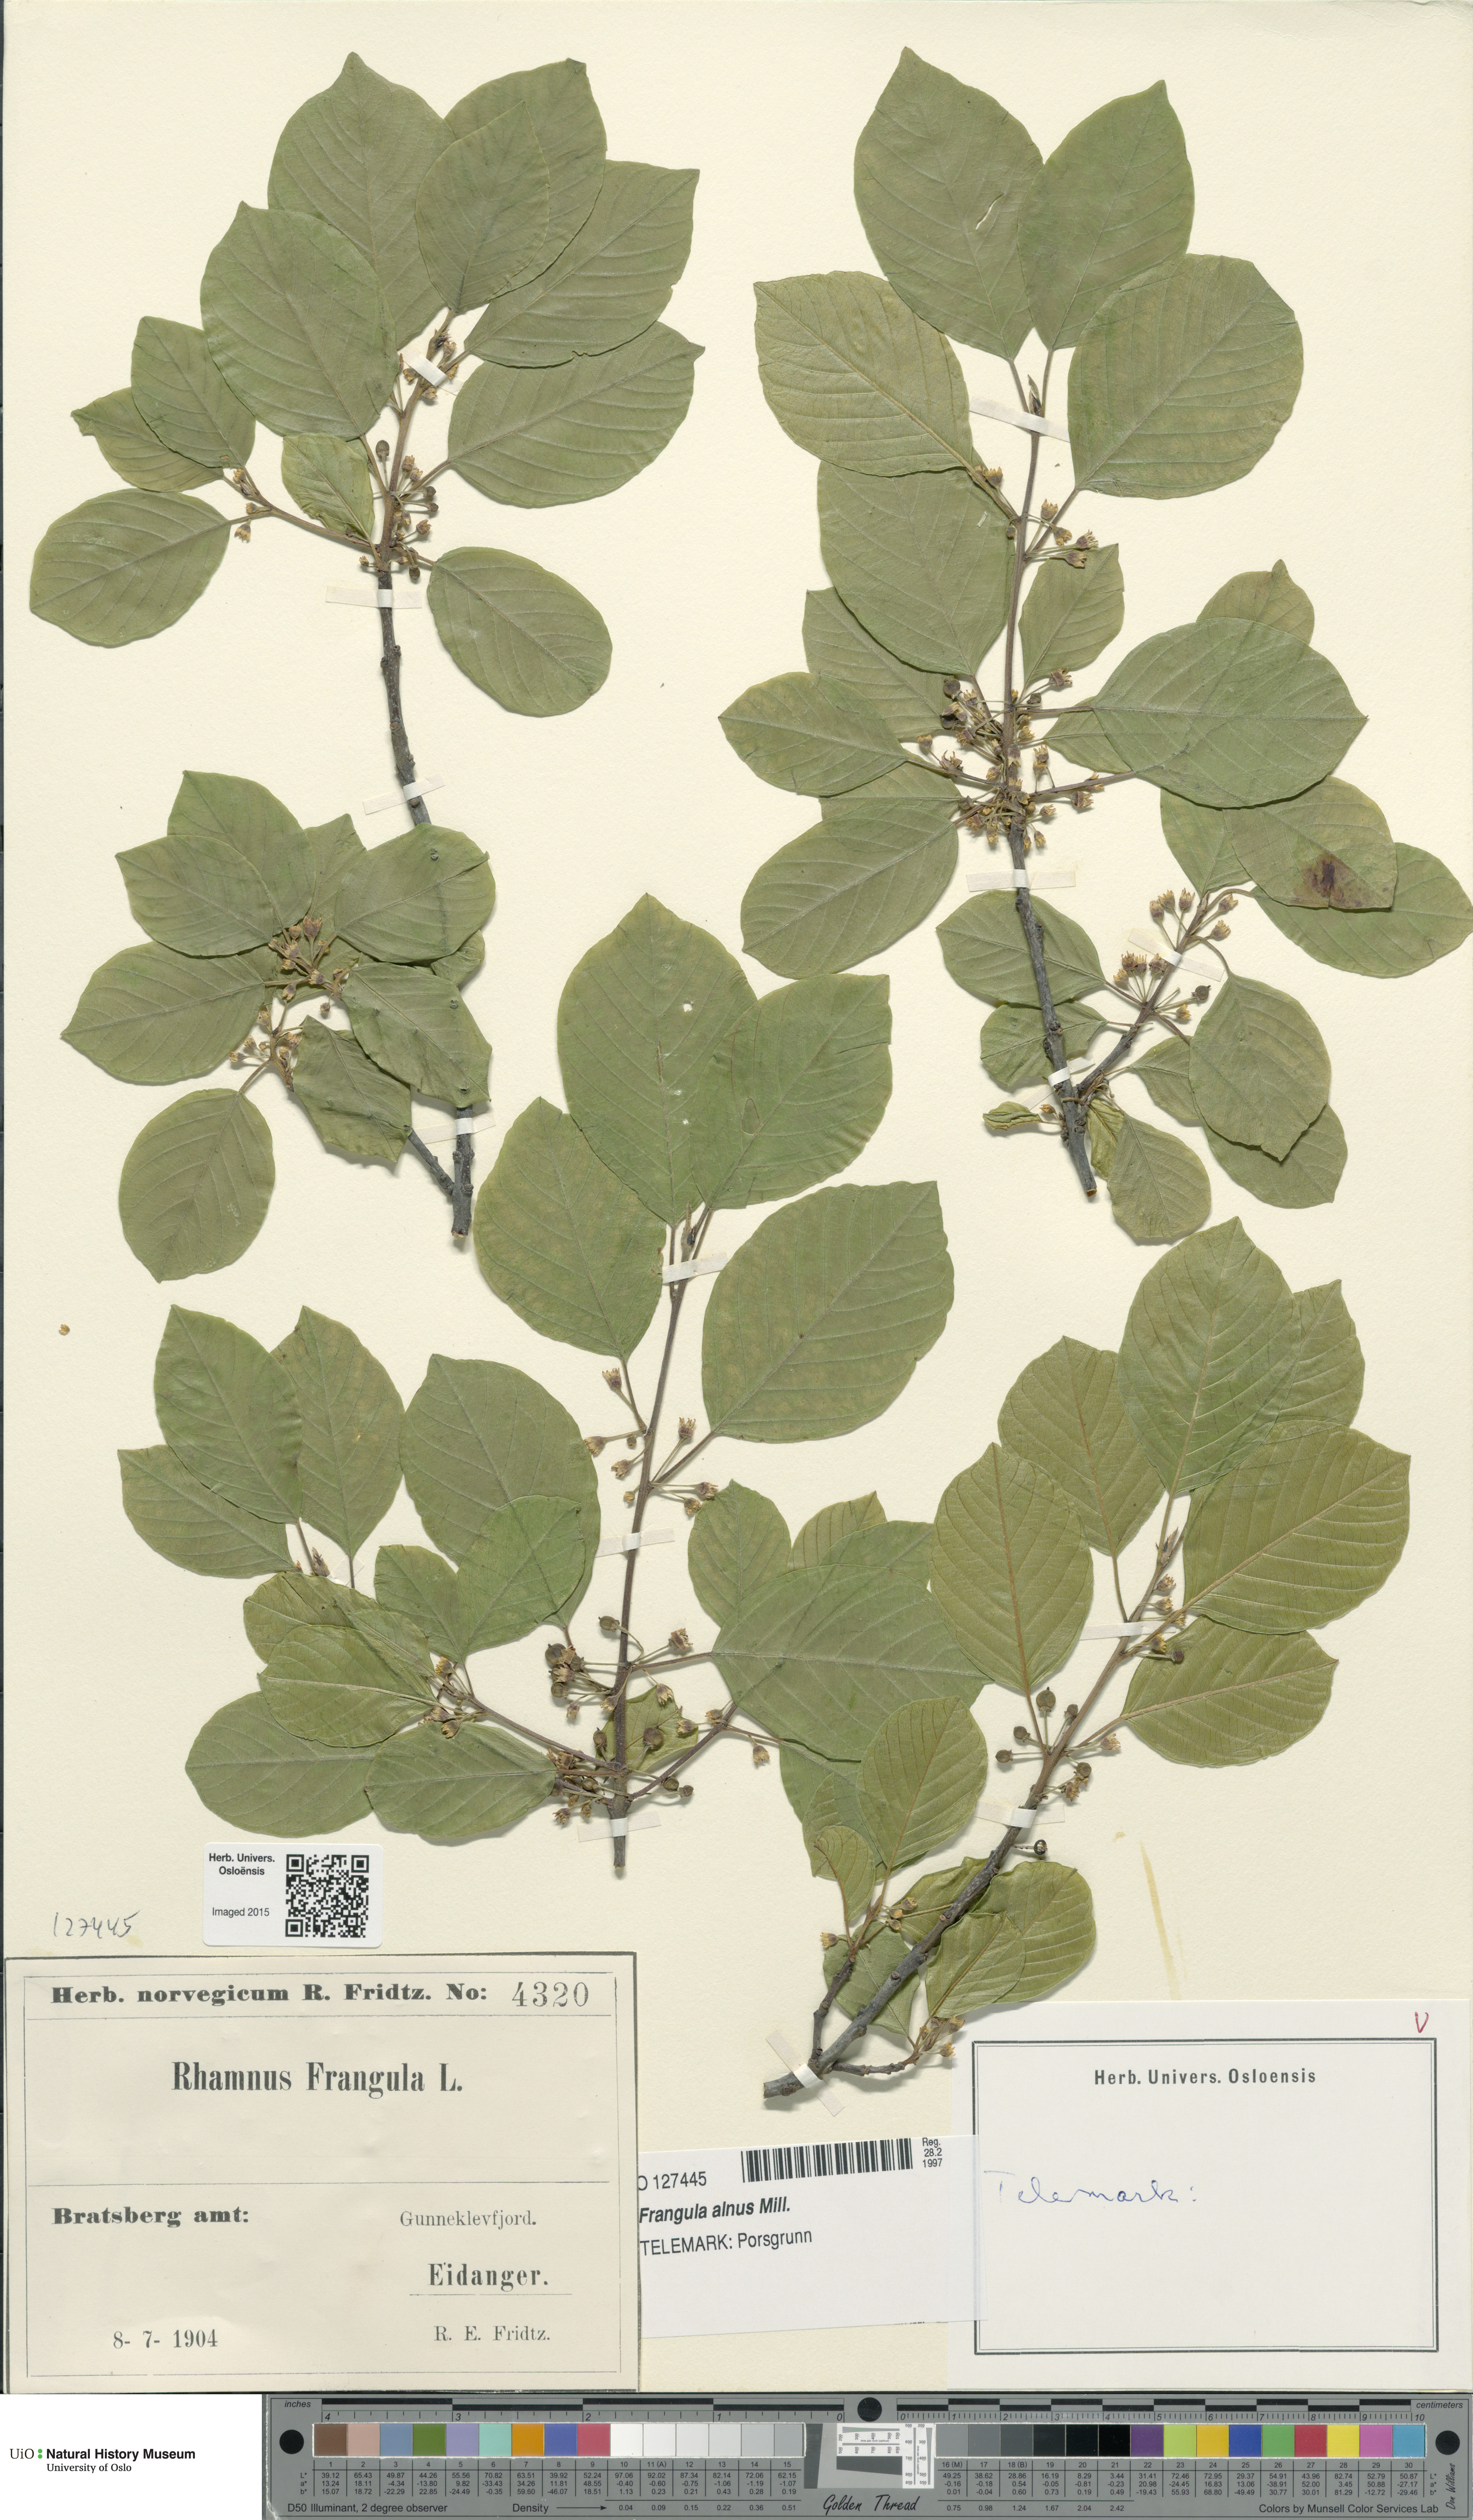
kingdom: Plantae
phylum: Tracheophyta
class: Magnoliopsida
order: Rosales
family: Rhamnaceae
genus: Frangula
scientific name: Frangula alnus
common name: Alder buckthorn
